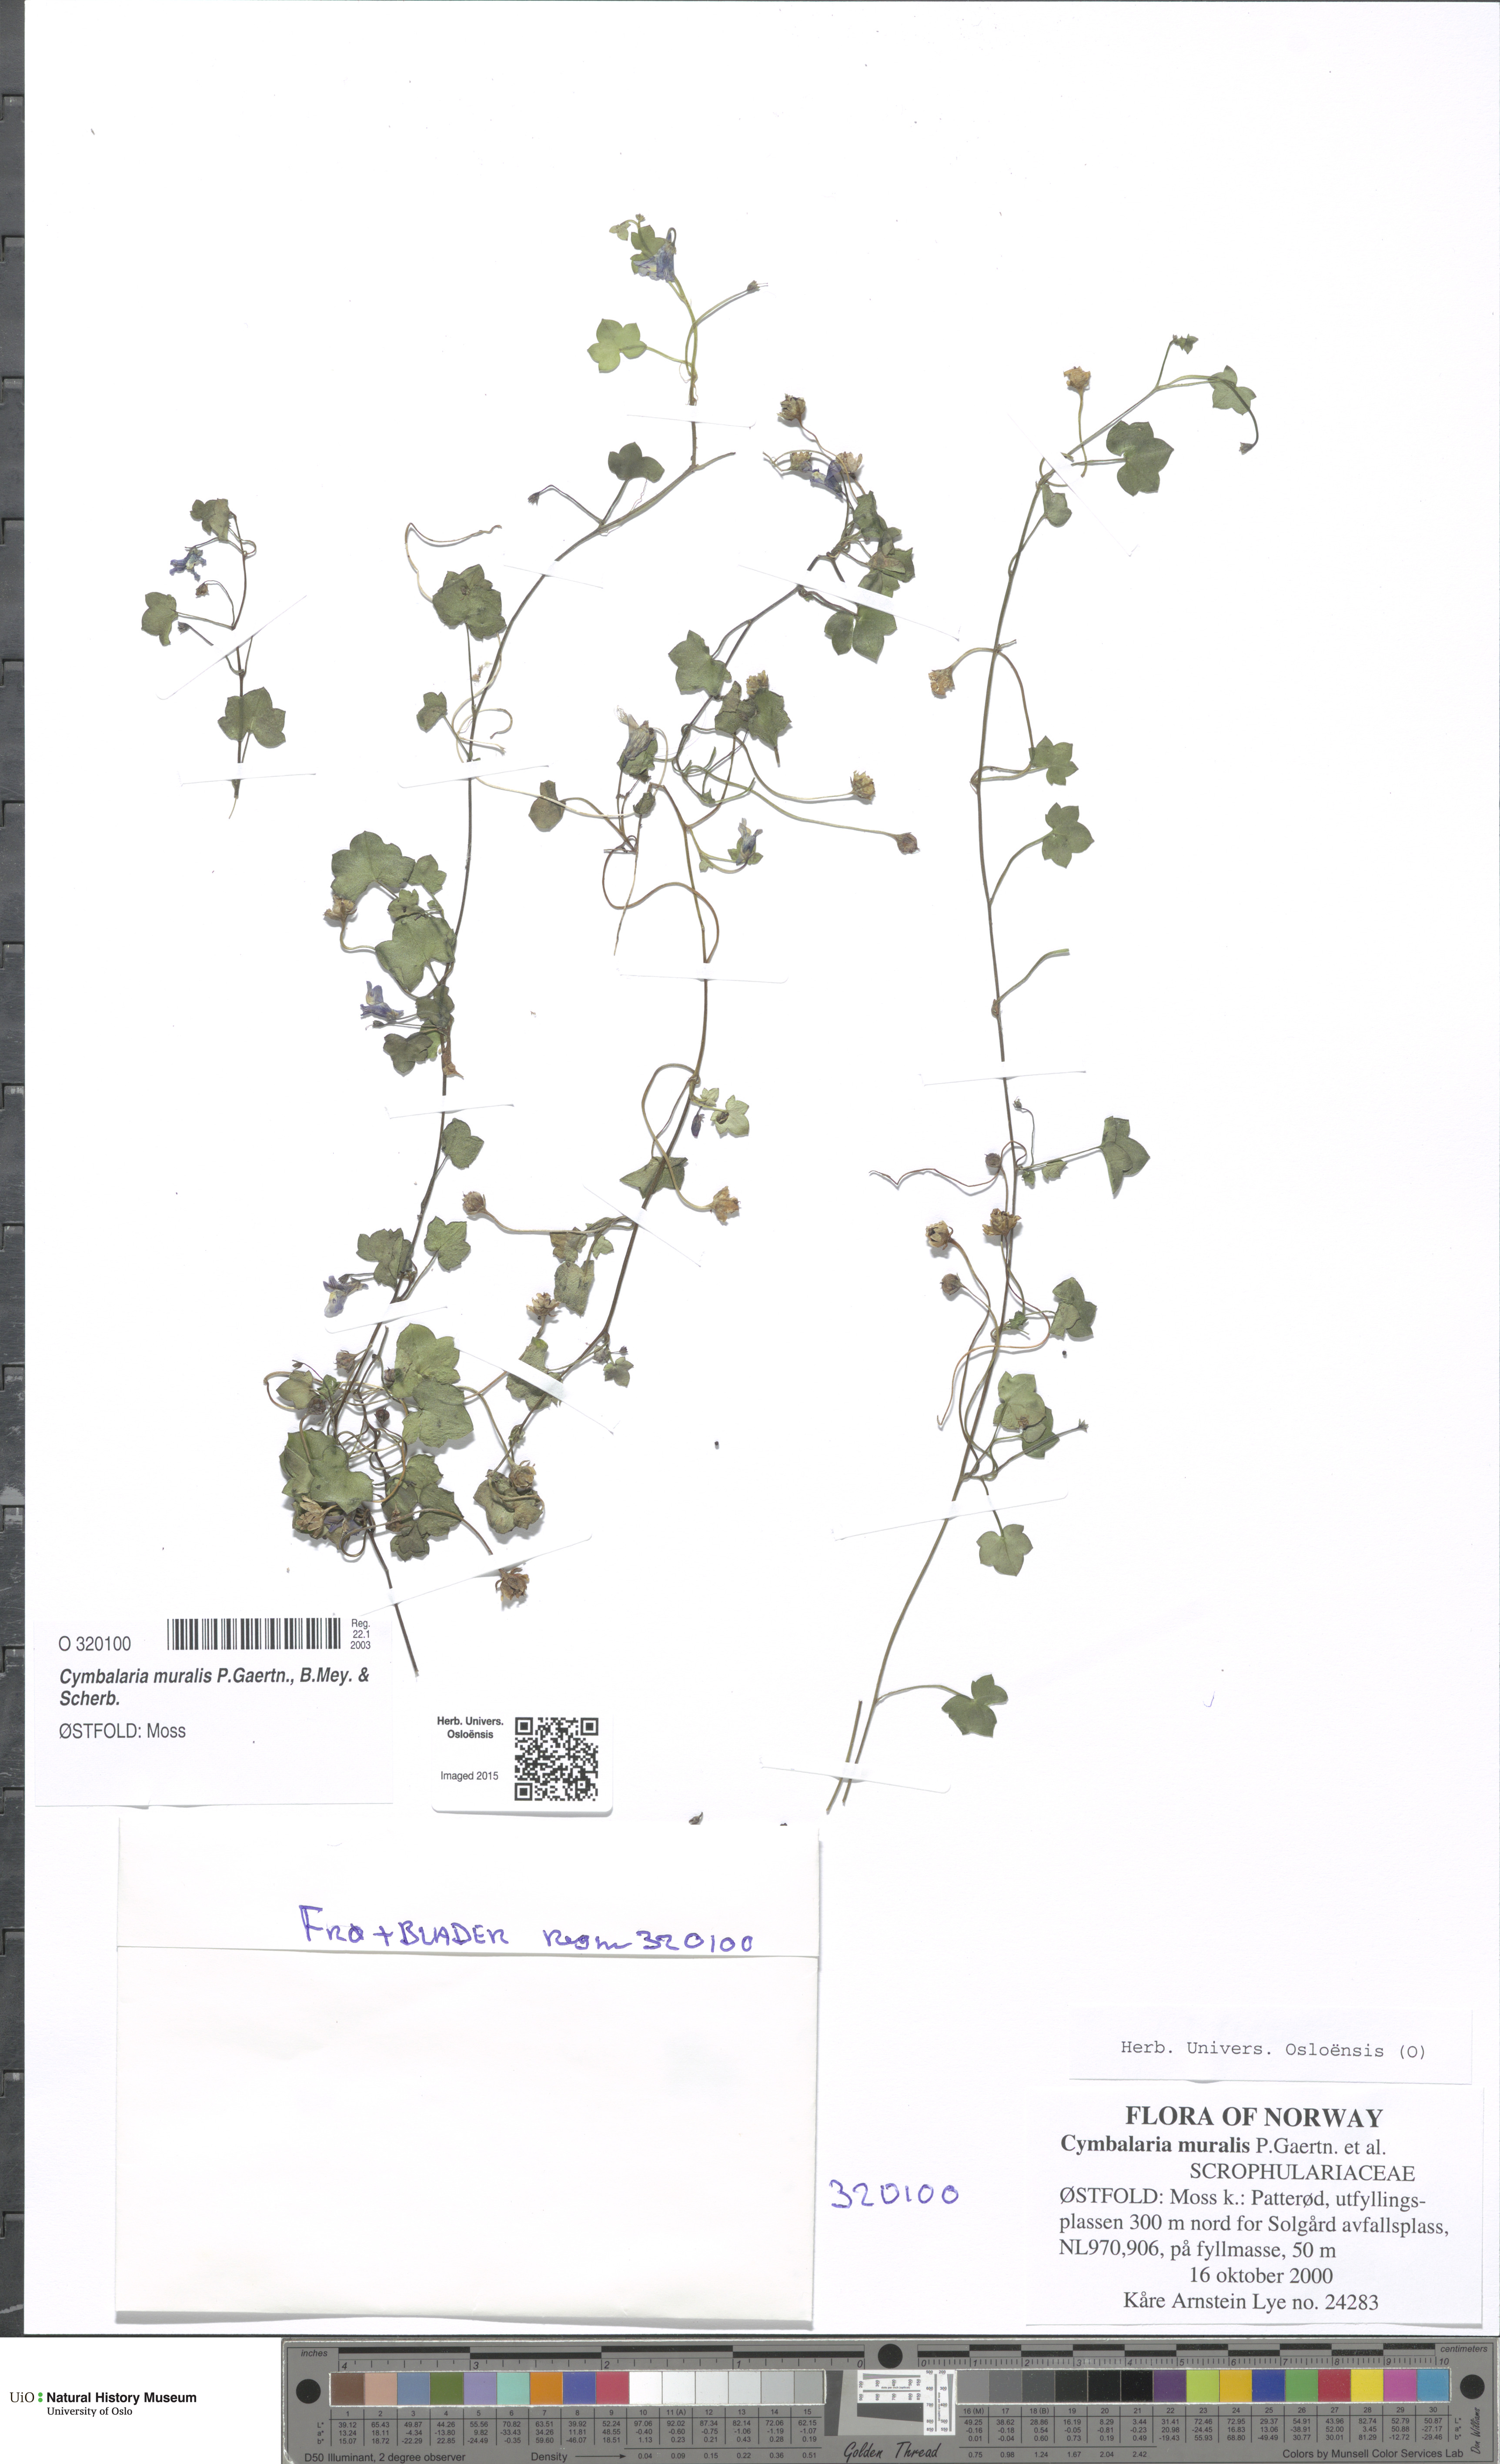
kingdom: Plantae
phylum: Tracheophyta
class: Magnoliopsida
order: Lamiales
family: Plantaginaceae
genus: Cymbalaria
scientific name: Cymbalaria muralis
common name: Ivy-leaved toadflax
